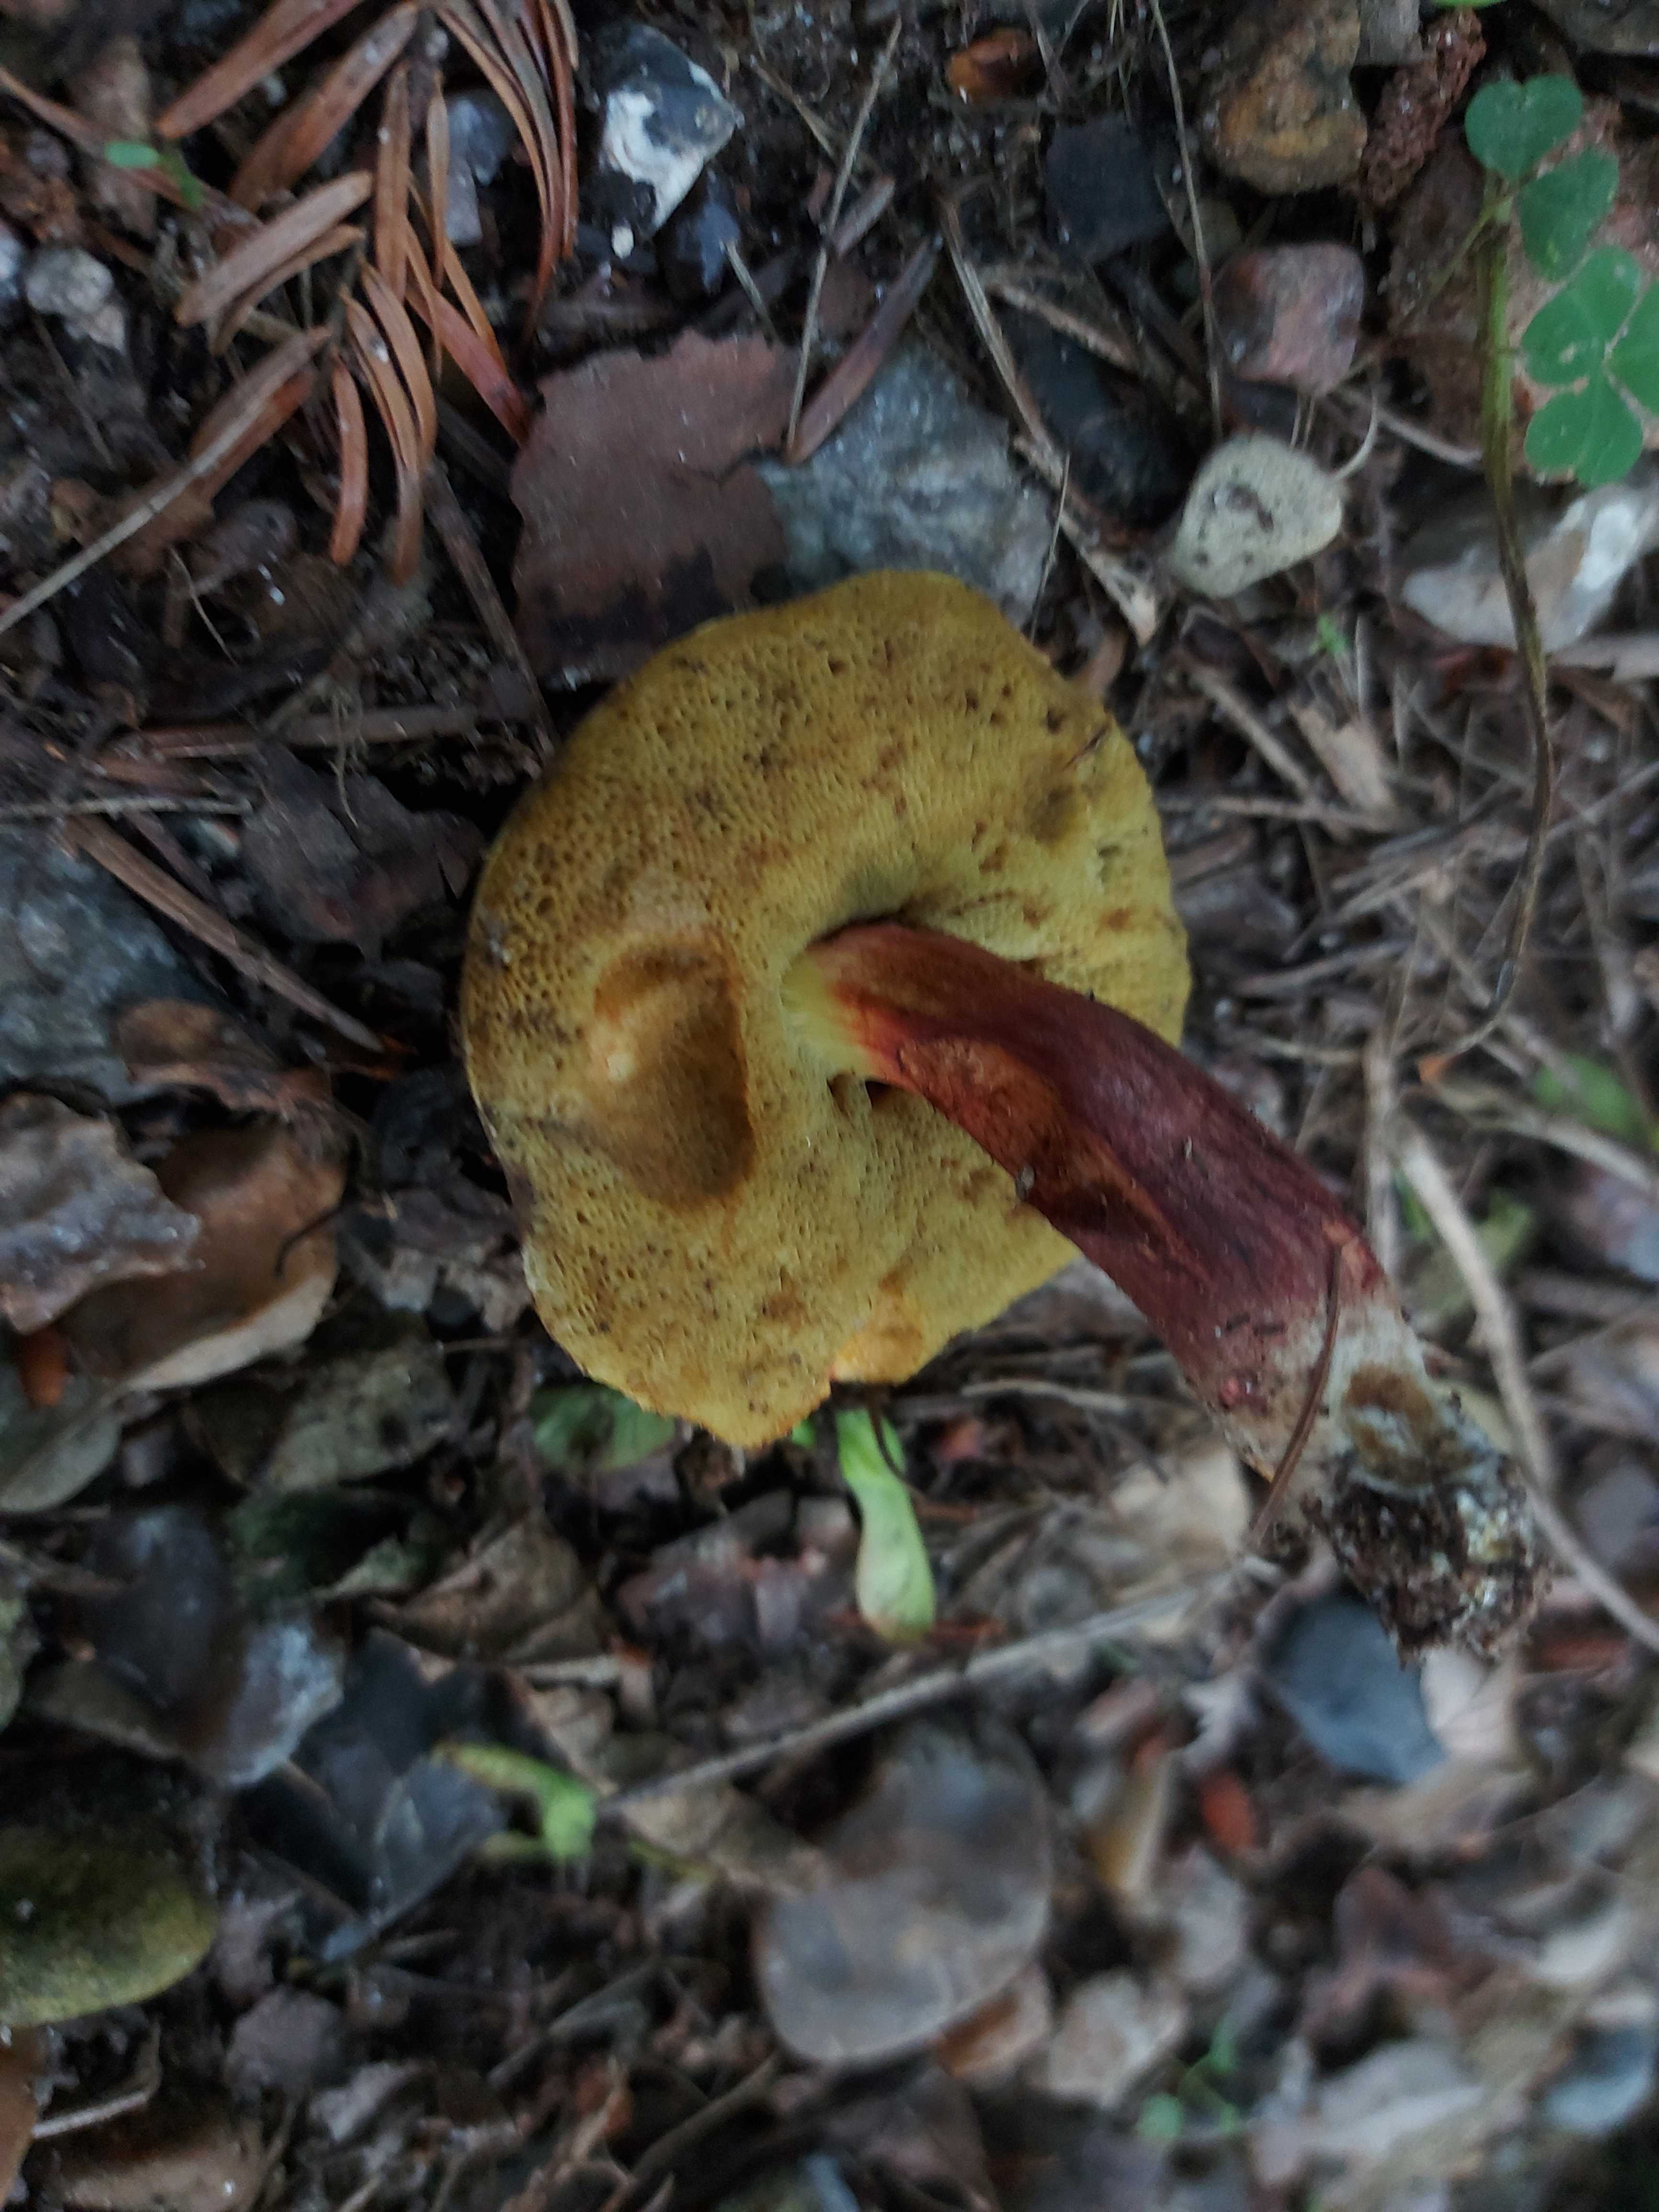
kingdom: Fungi
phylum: Basidiomycota
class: Agaricomycetes
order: Boletales
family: Boletaceae
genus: Xerocomellus
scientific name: Xerocomellus
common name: dværgrørhat
